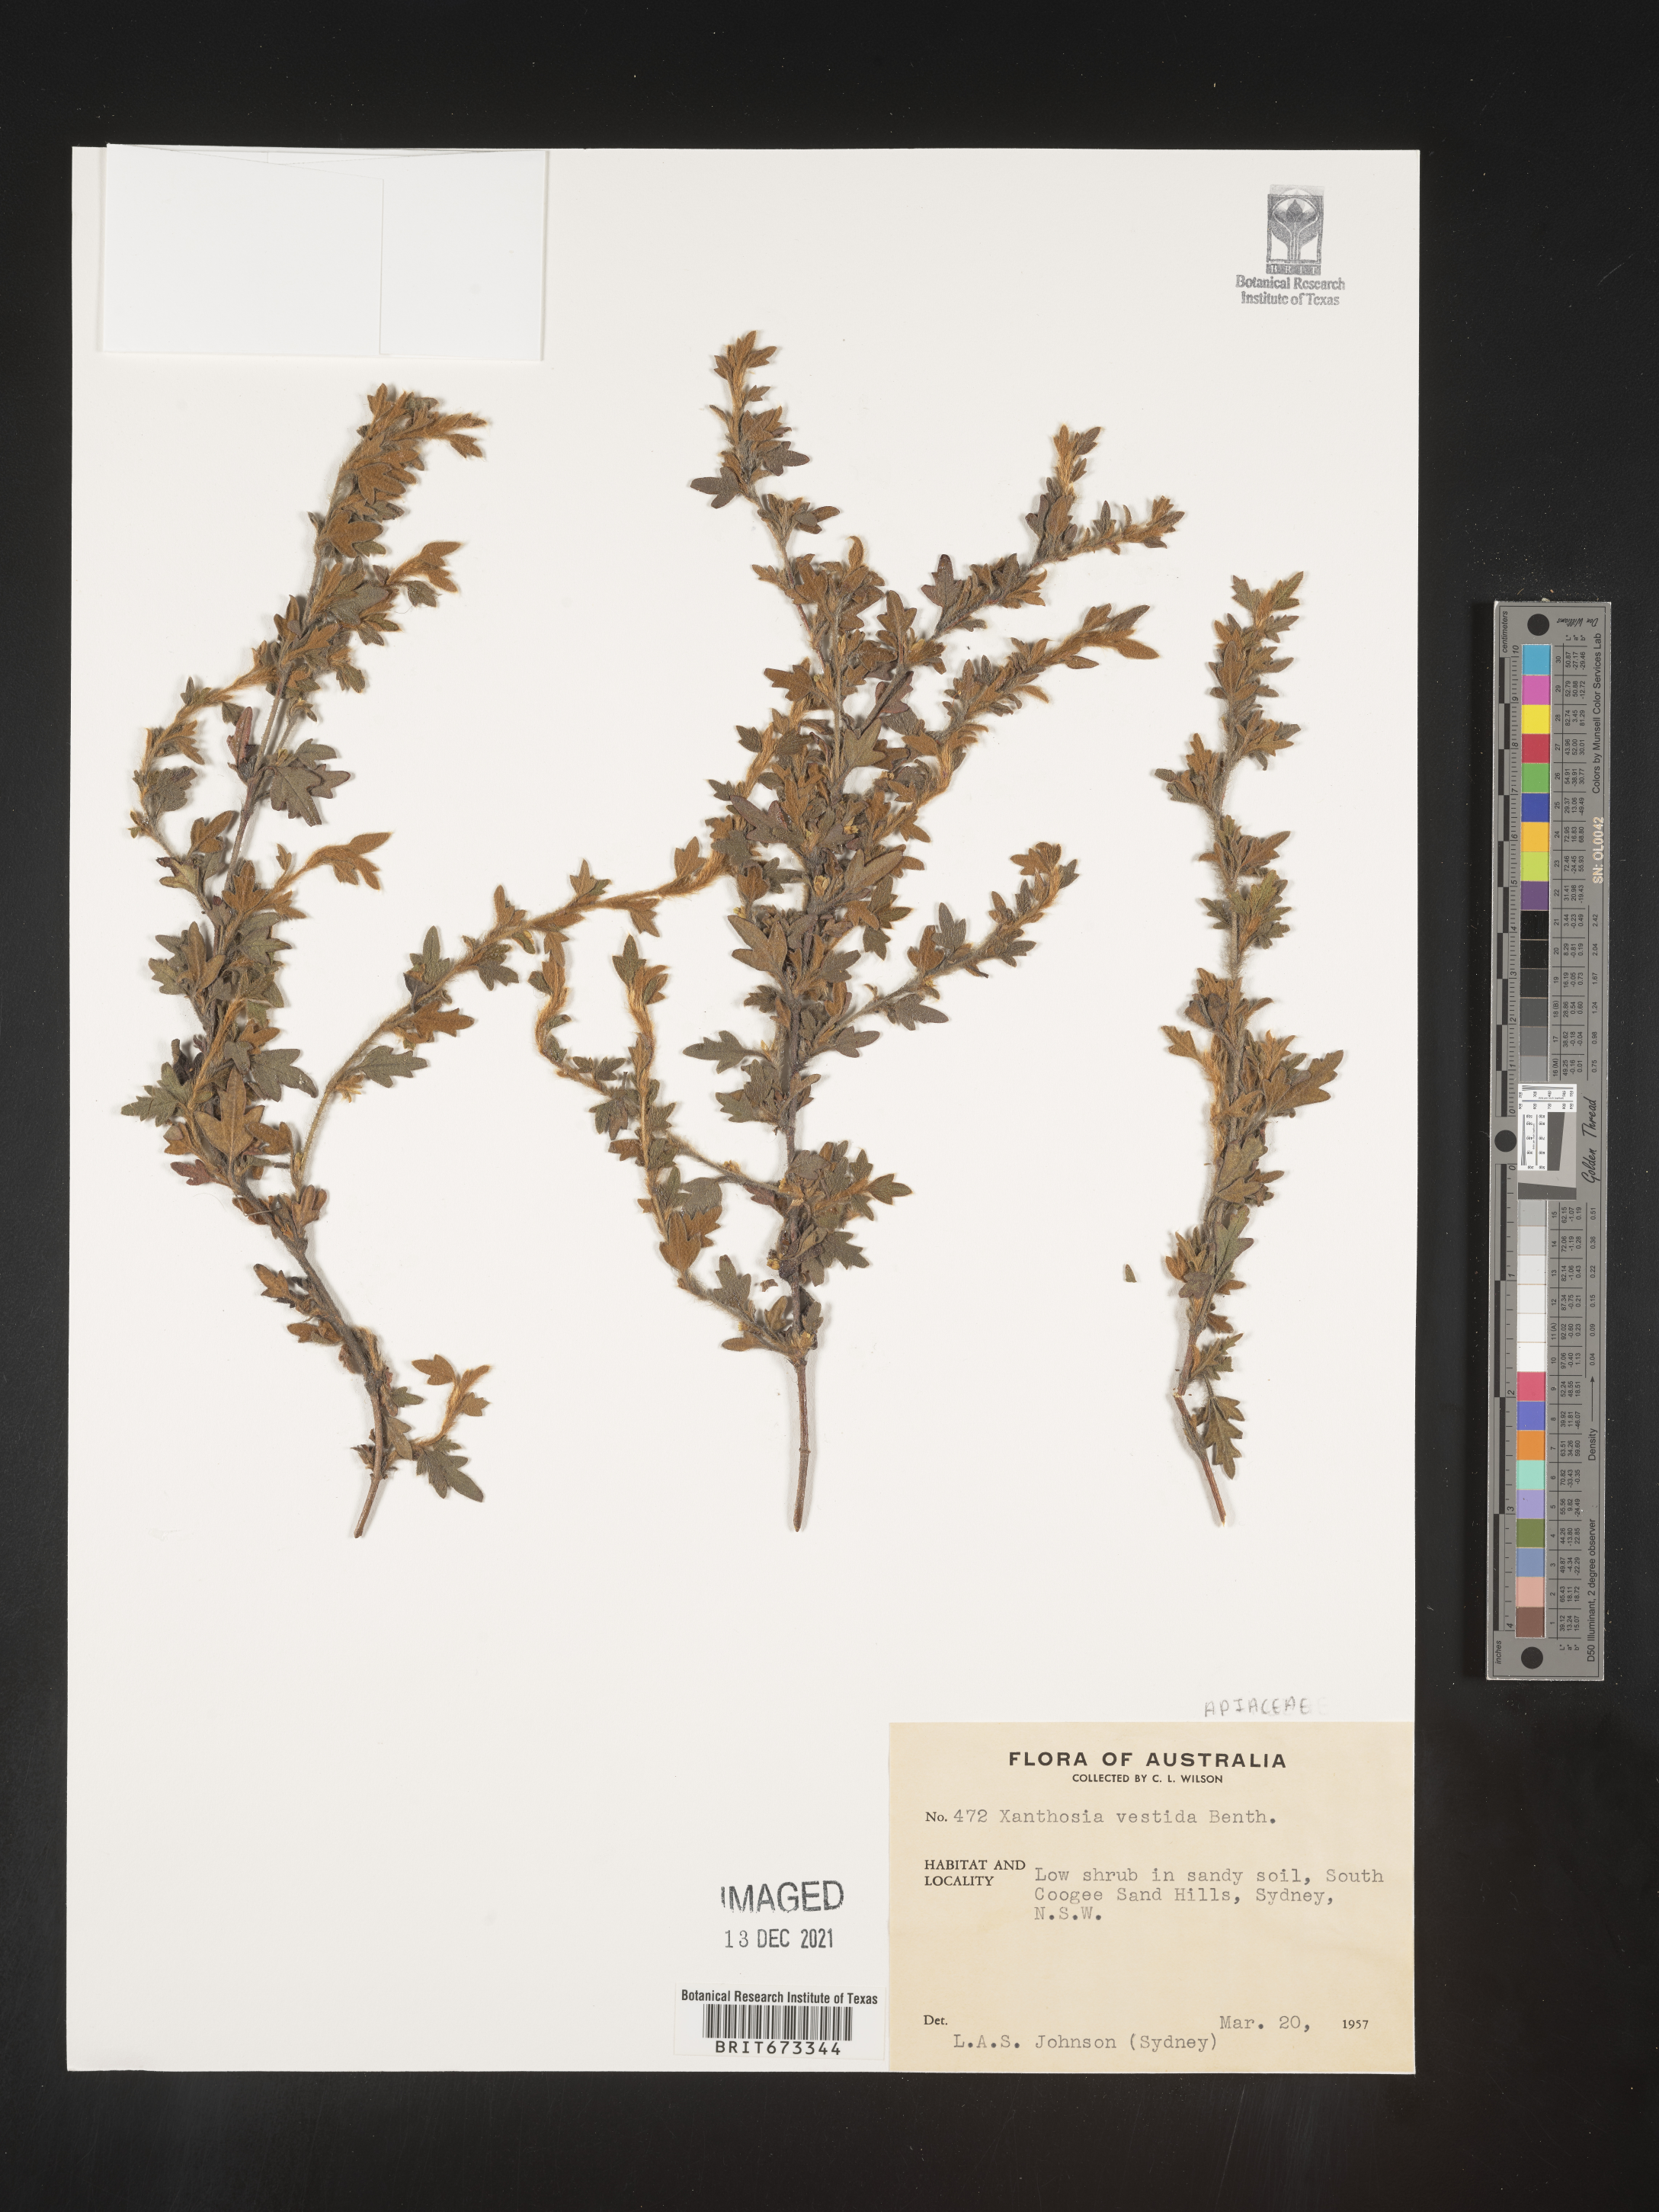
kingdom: Plantae
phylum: Tracheophyta
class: Magnoliopsida
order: Apiales
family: Apiaceae
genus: Xanthosia
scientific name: Xanthosia
